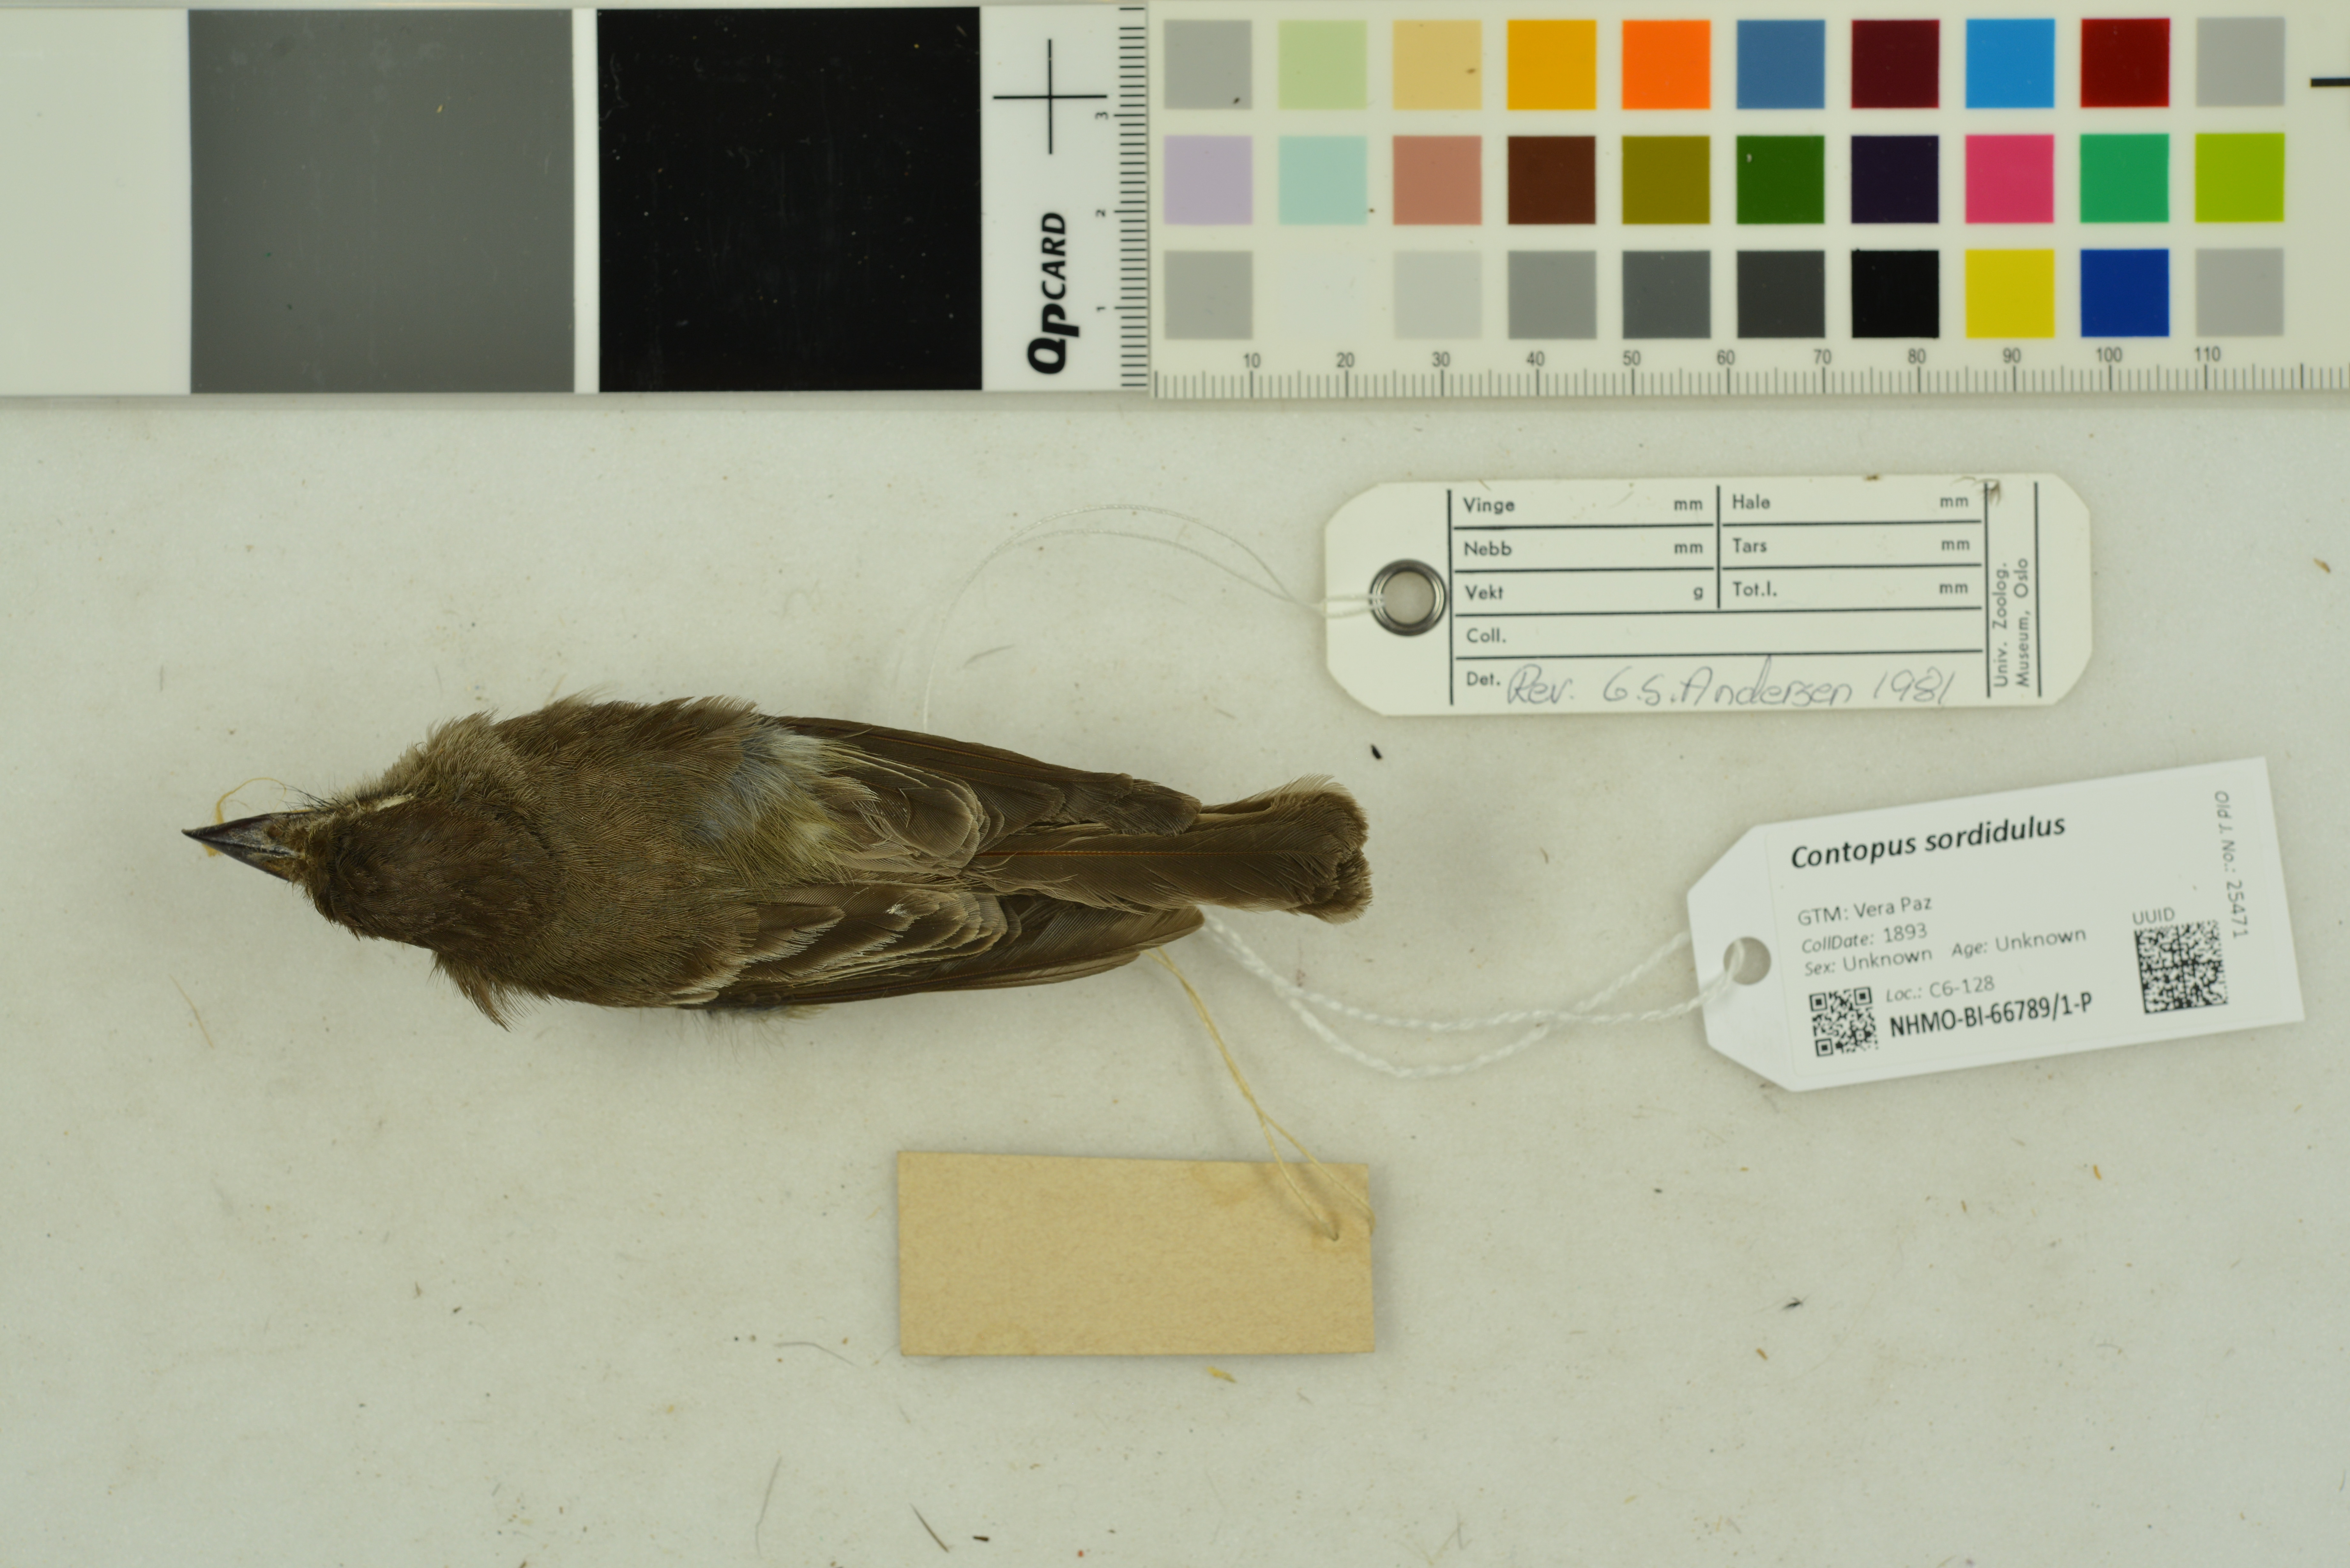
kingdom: Animalia
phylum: Chordata
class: Aves
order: Passeriformes
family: Tyrannidae
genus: Contopus
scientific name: Contopus sordidulus
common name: Western wood-pewee
